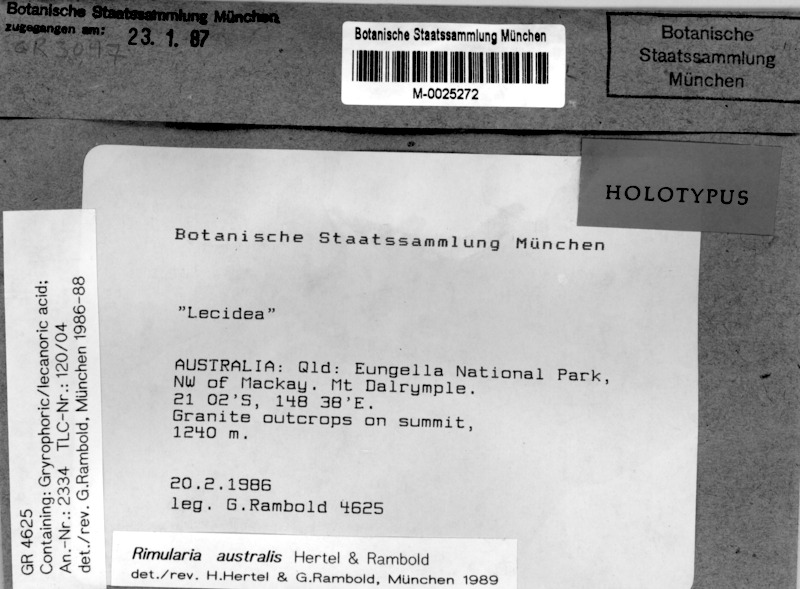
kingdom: Fungi
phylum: Ascomycota
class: Lecanoromycetes
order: Baeomycetales
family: Trapeliaceae
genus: Rimularia
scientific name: Rimularia australis
